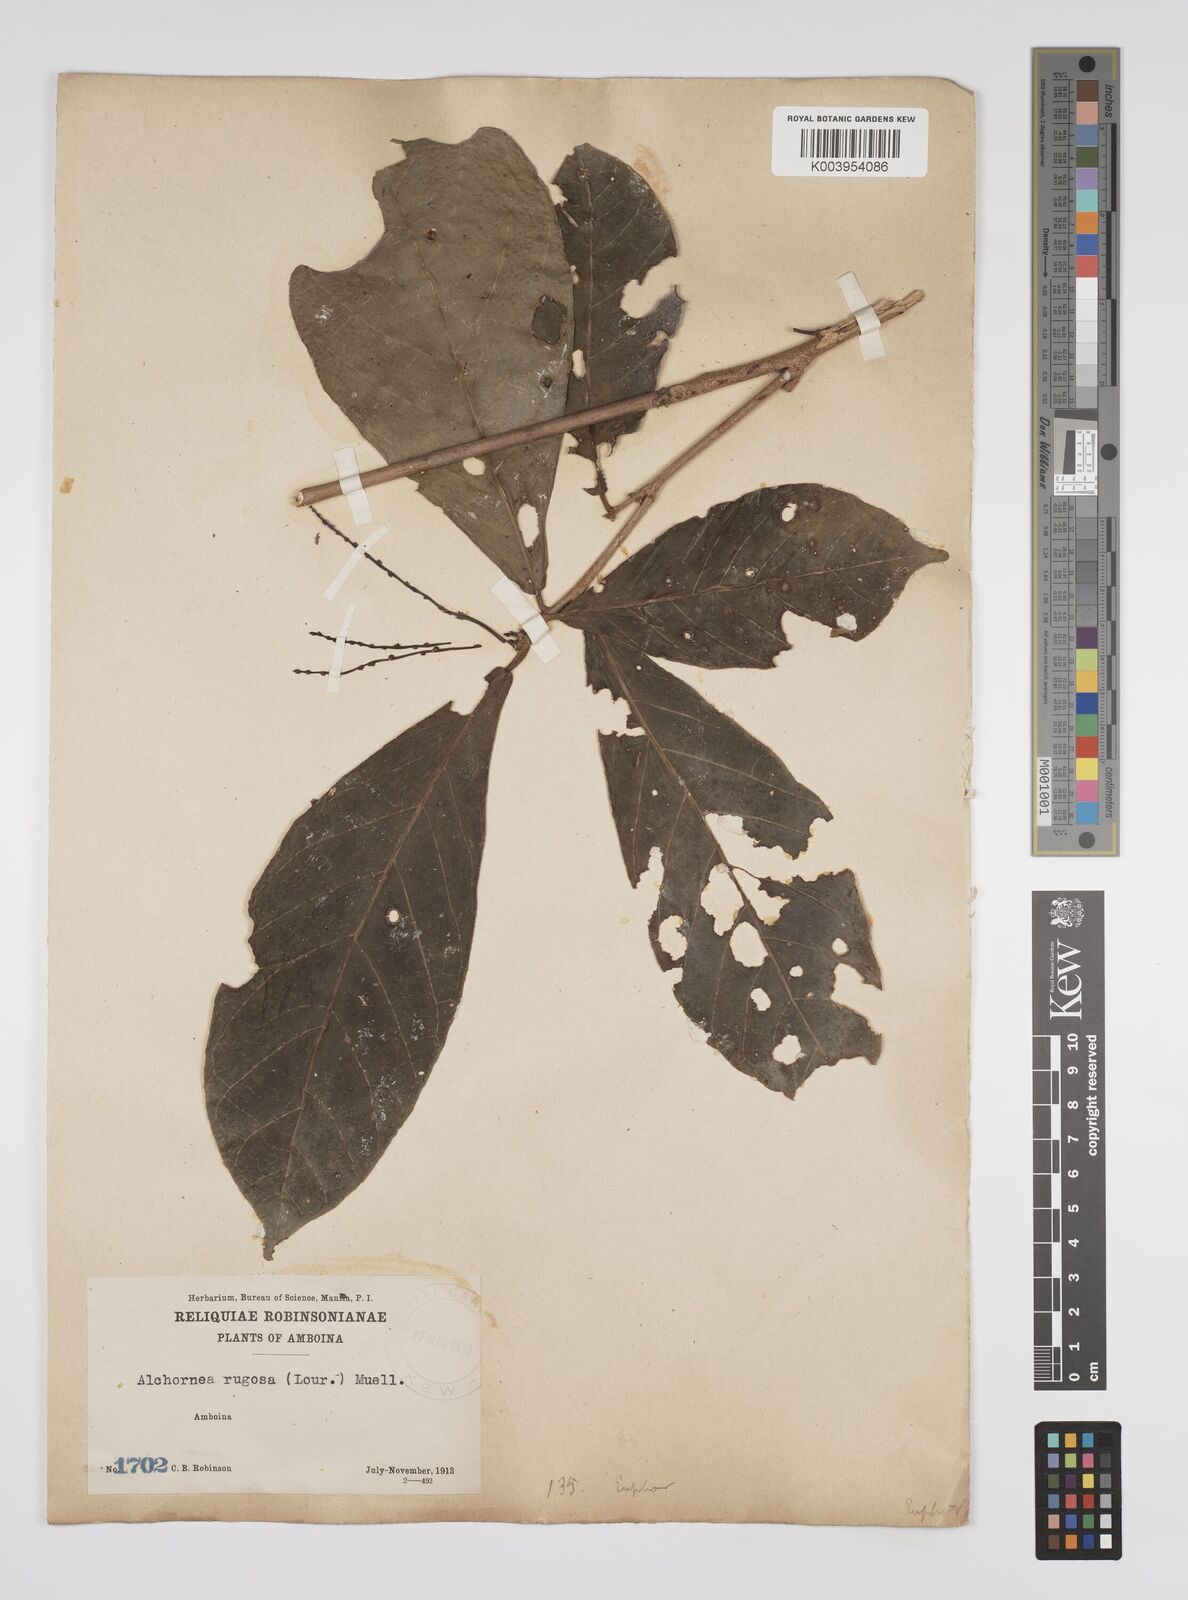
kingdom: Plantae
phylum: Tracheophyta
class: Magnoliopsida
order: Malpighiales
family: Euphorbiaceae
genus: Alchornea
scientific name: Alchornea rugosa
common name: Alchorntree
